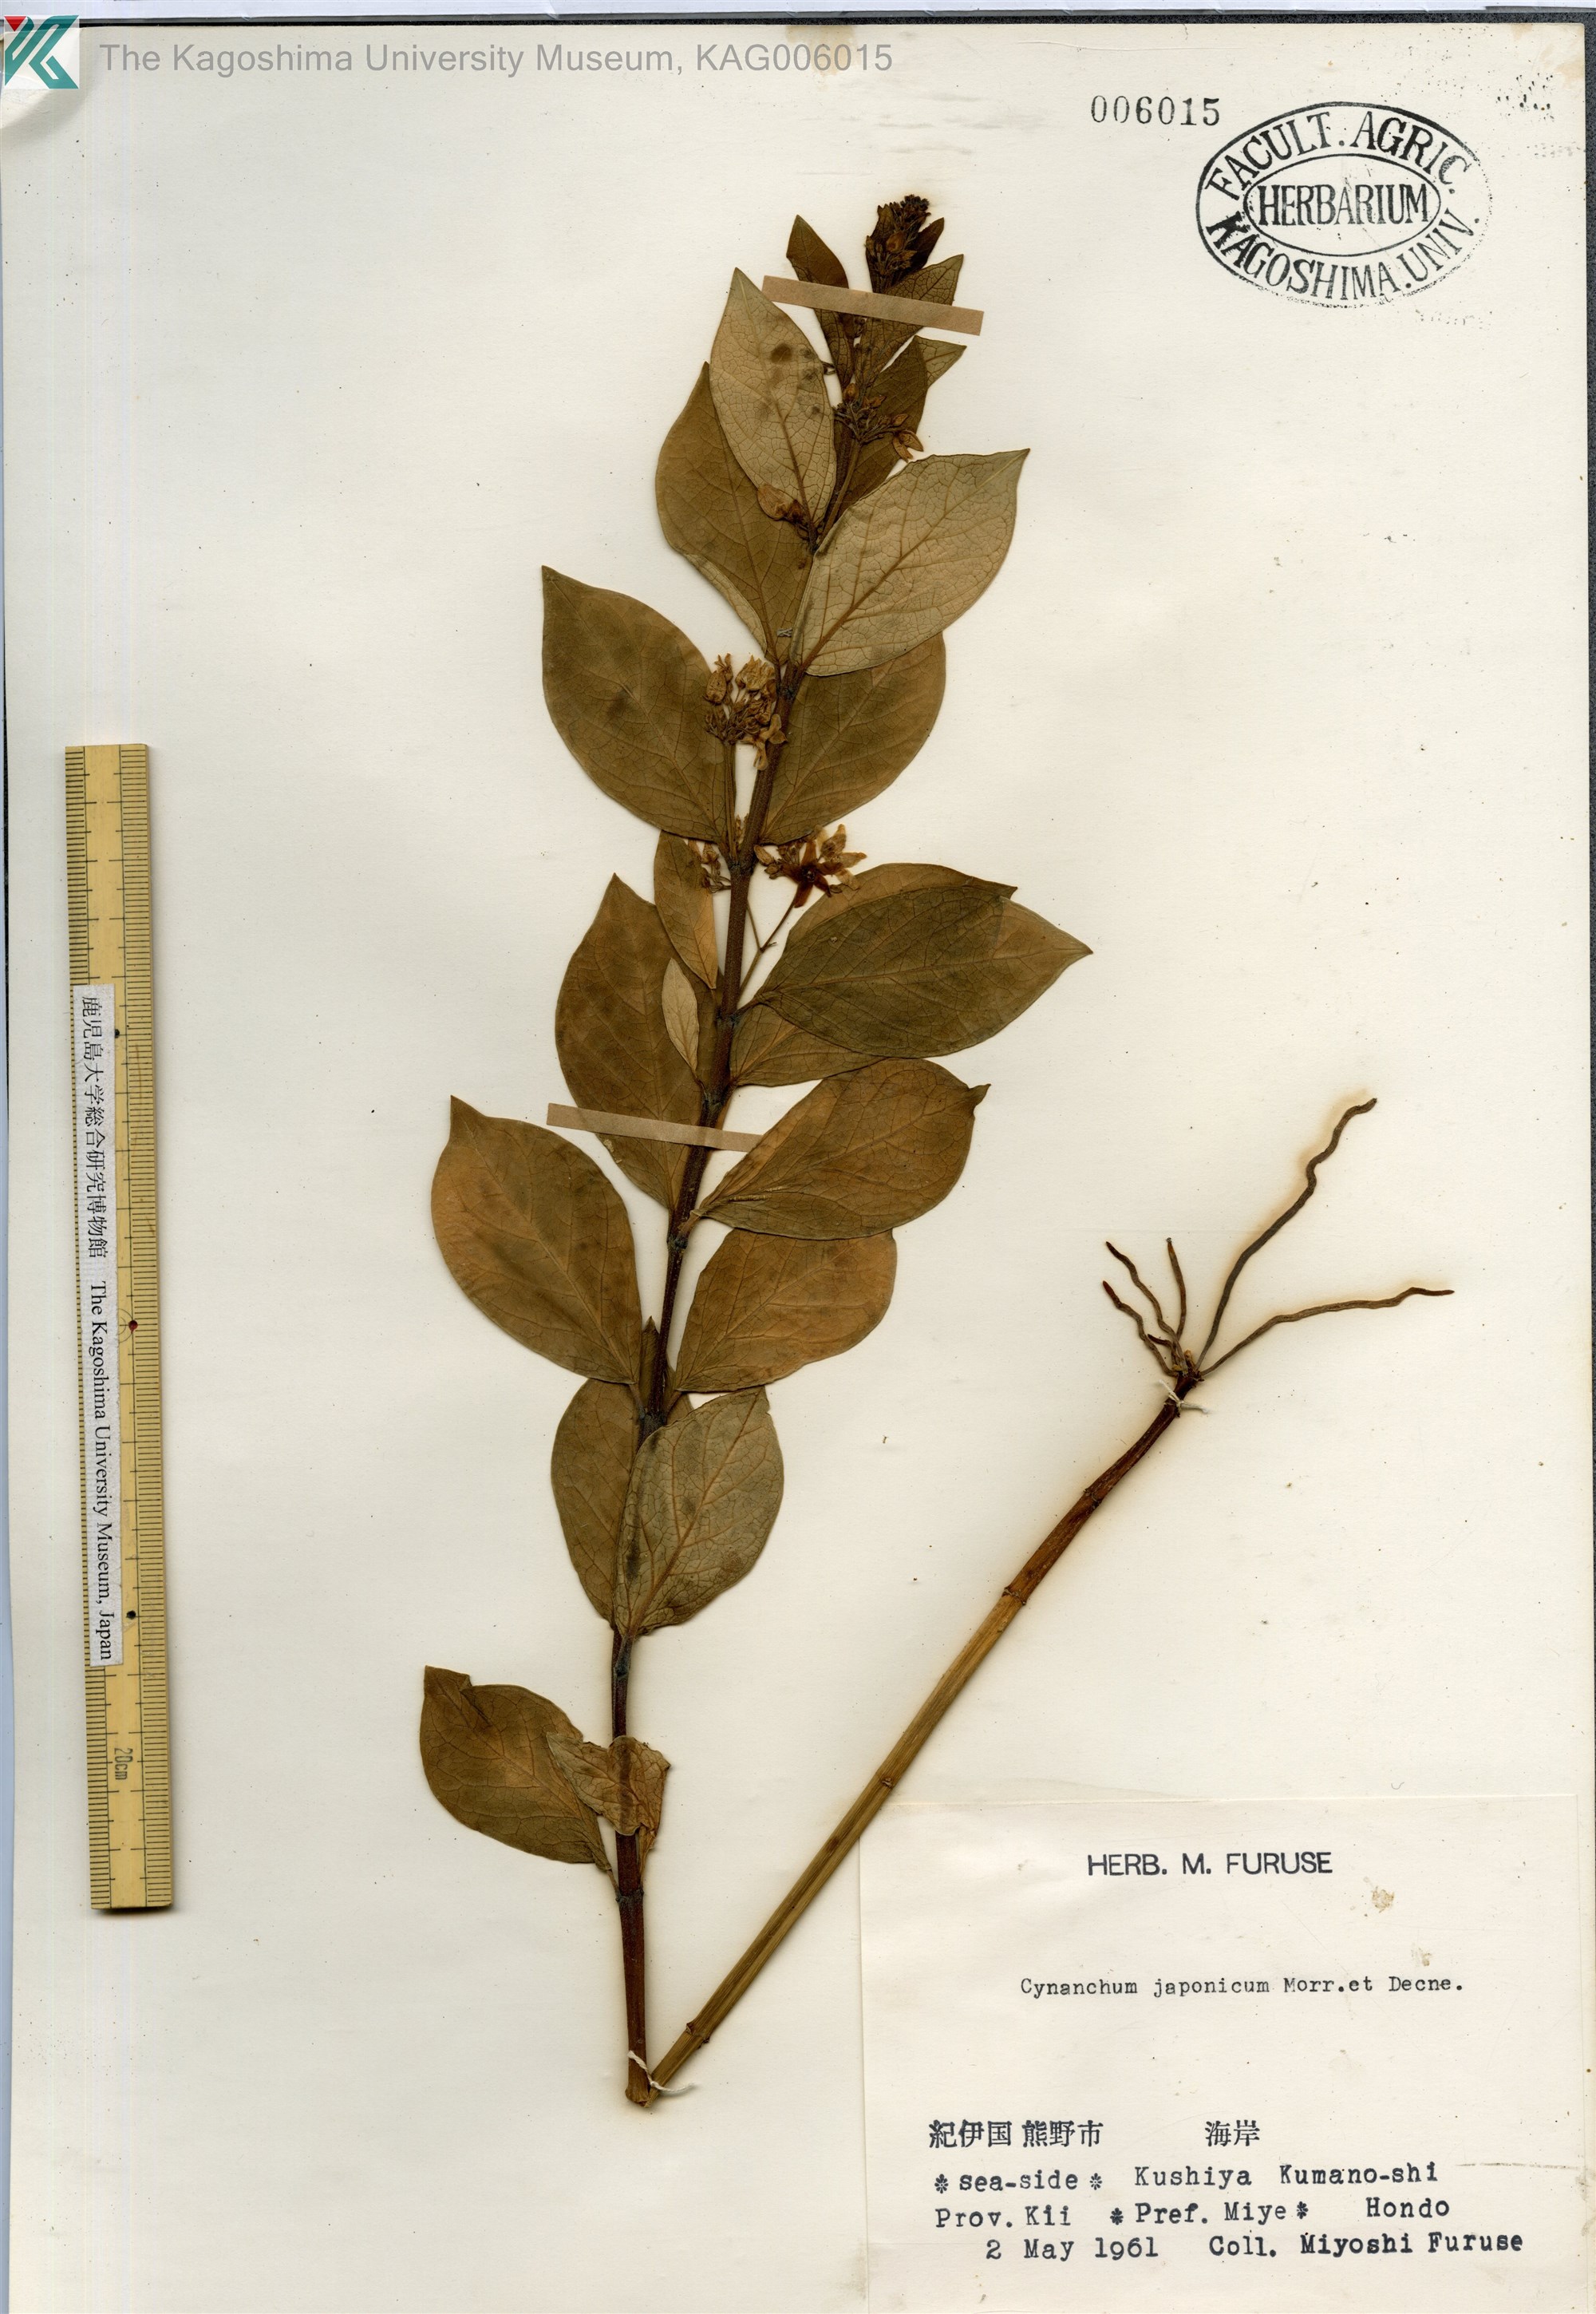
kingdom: Plantae
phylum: Tracheophyta
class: Magnoliopsida
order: Gentianales
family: Apocynaceae
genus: Vincetoxicum
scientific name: Vincetoxicum japonicum
